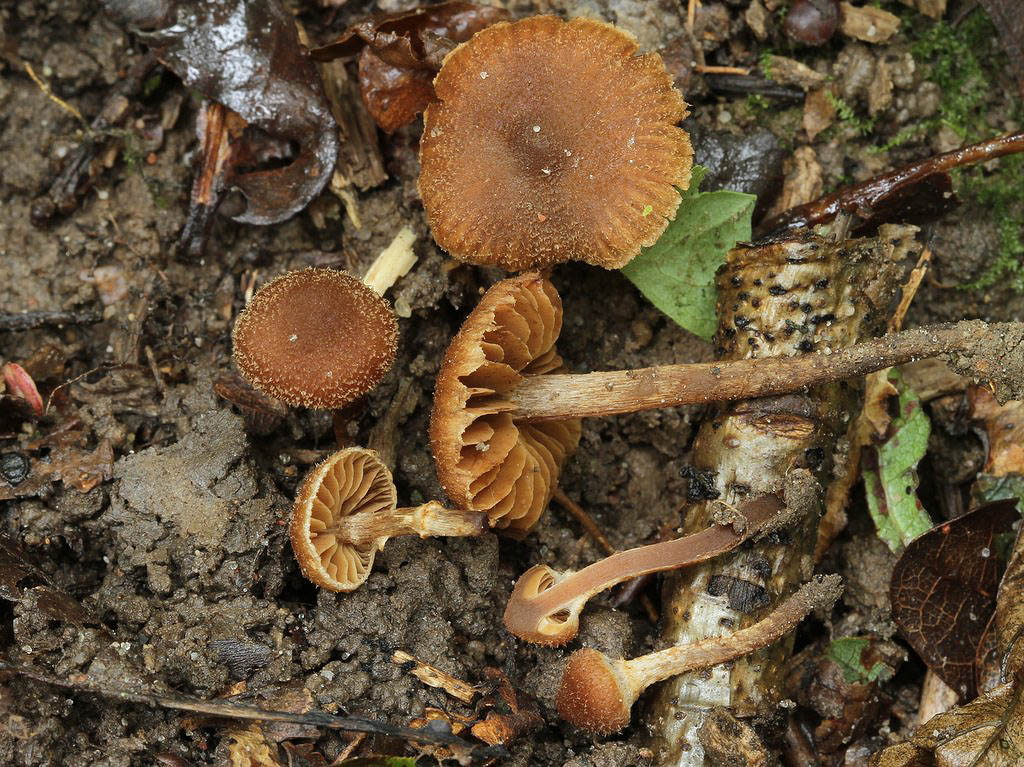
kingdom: Fungi
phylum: Basidiomycota
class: Agaricomycetes
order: Agaricales
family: Cortinariaceae
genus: Cortinarius
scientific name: Cortinarius quercoconicus
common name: agernskål-slørhat
